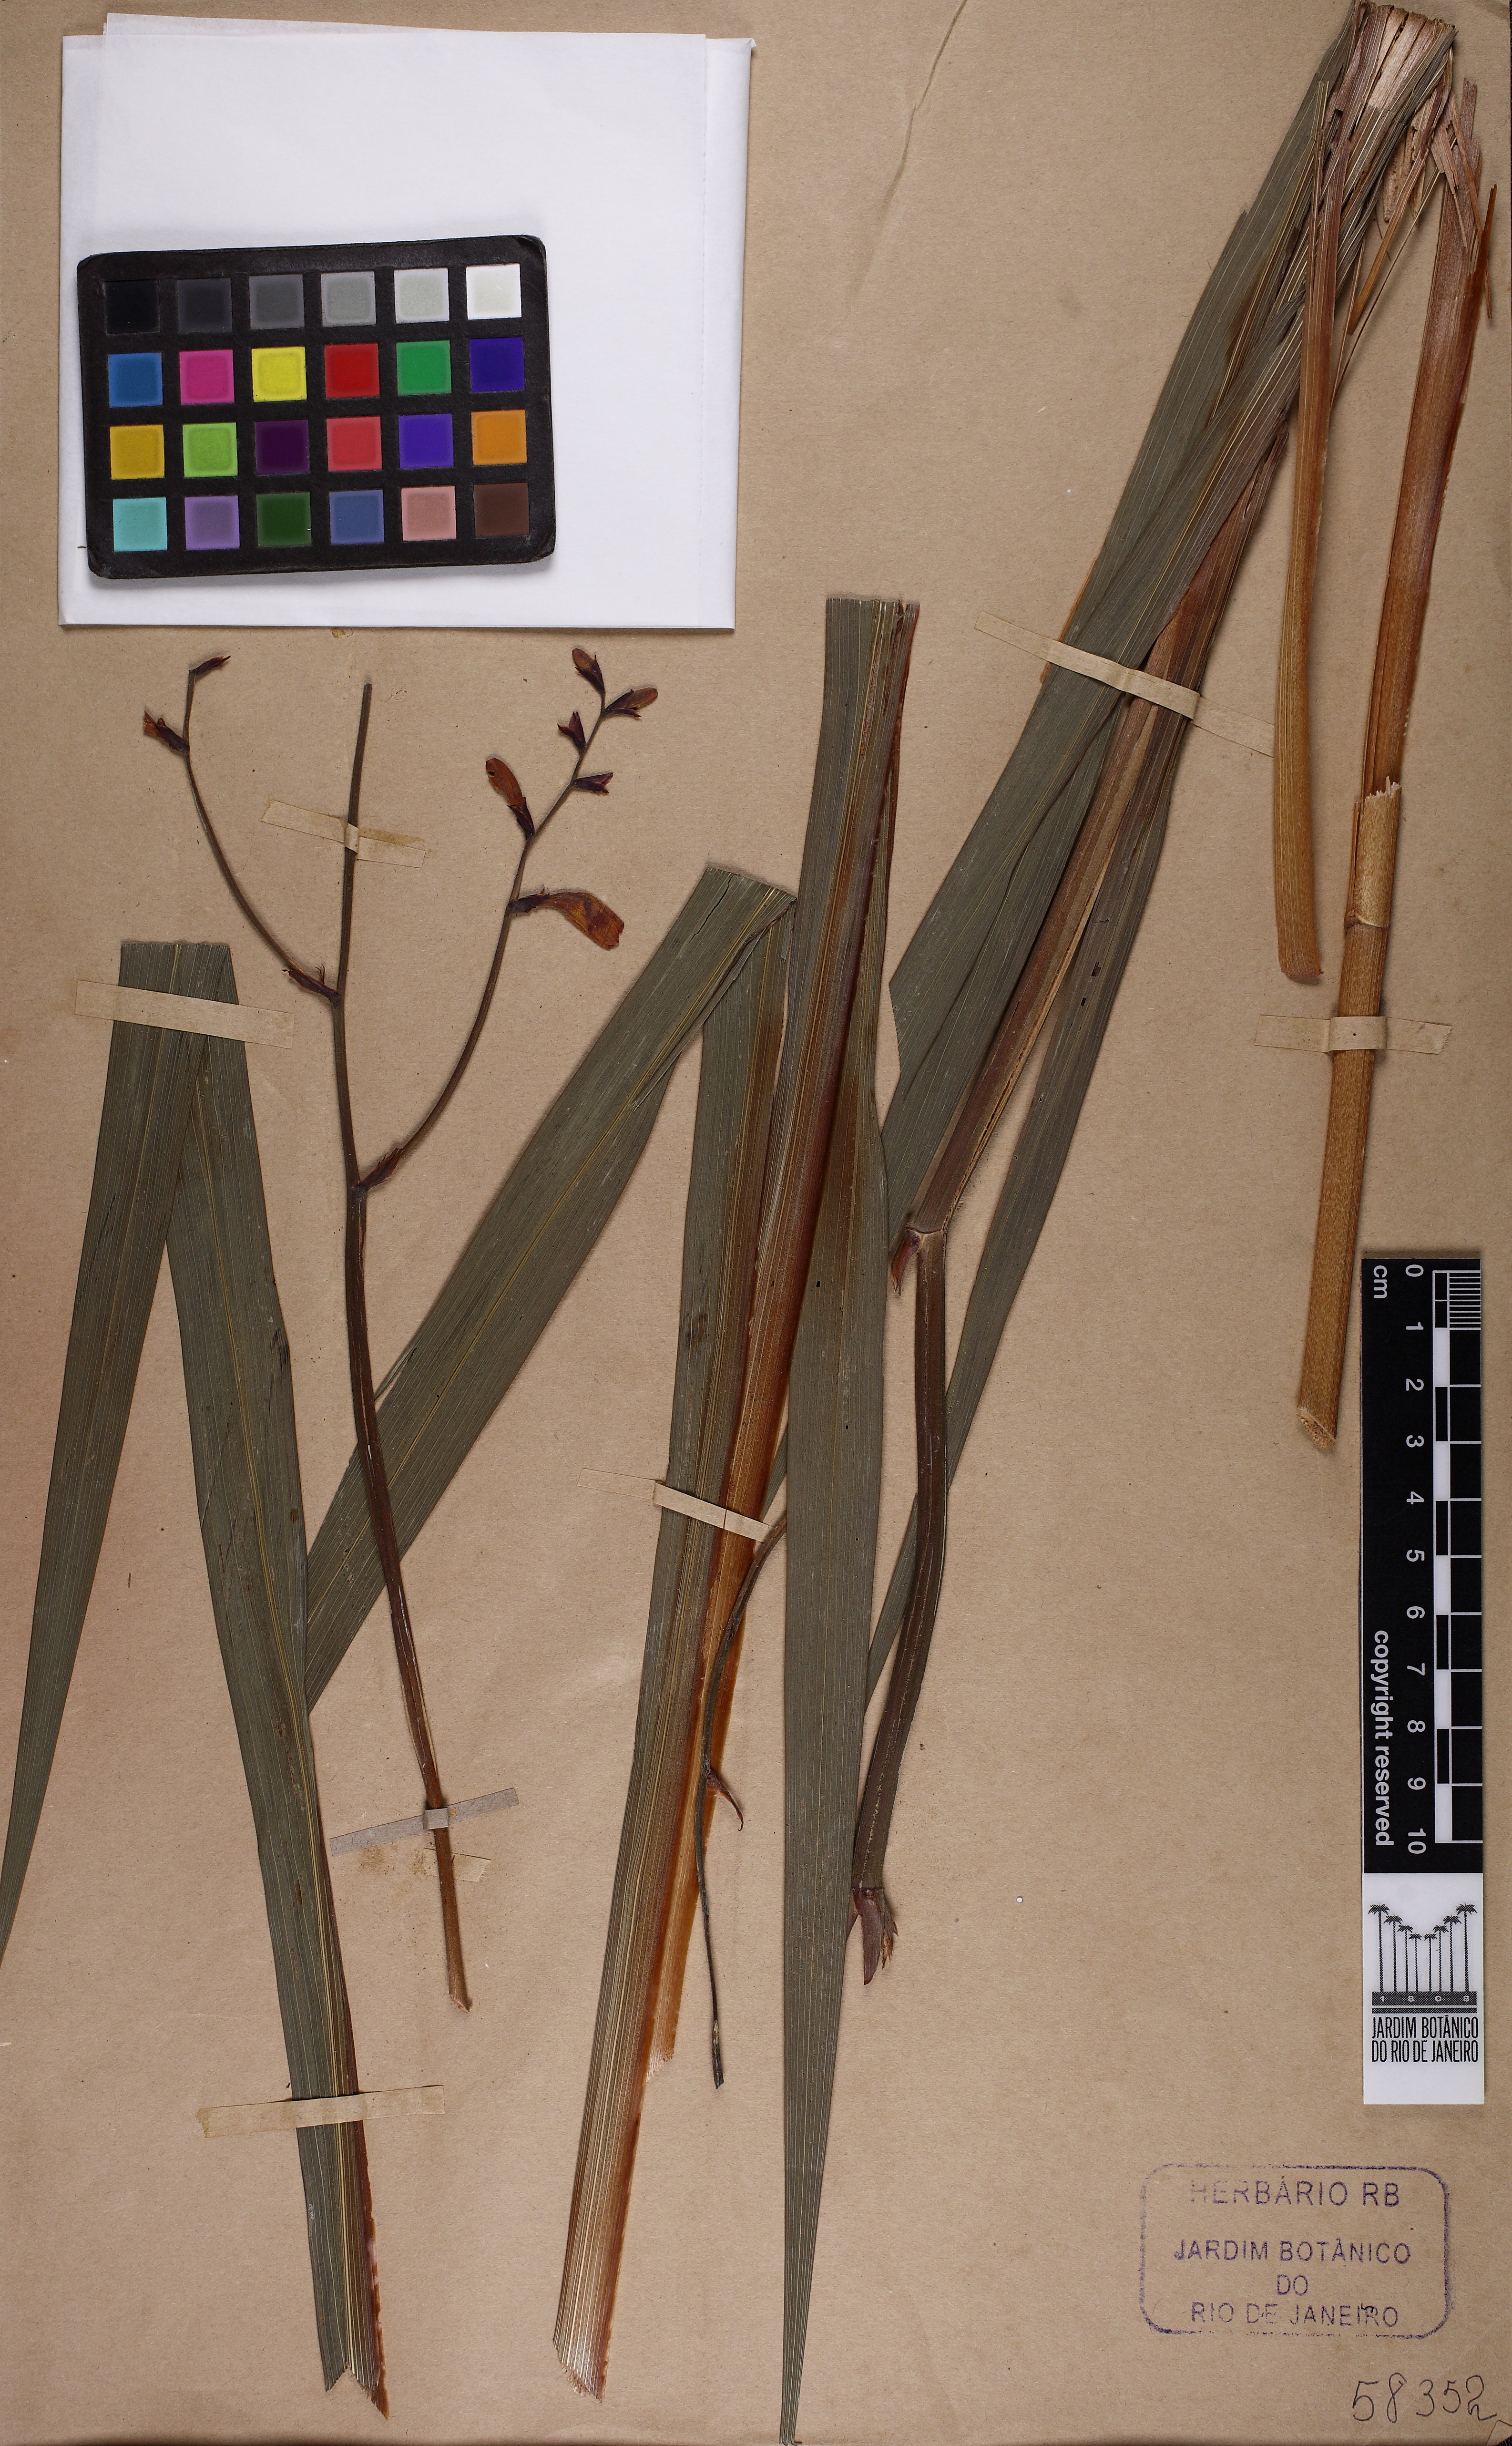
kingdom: Plantae
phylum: Tracheophyta
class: Liliopsida
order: Asparagales
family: Iridaceae
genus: Crocosmia
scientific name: Crocosmia crocosmiiflora
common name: Montbretia
